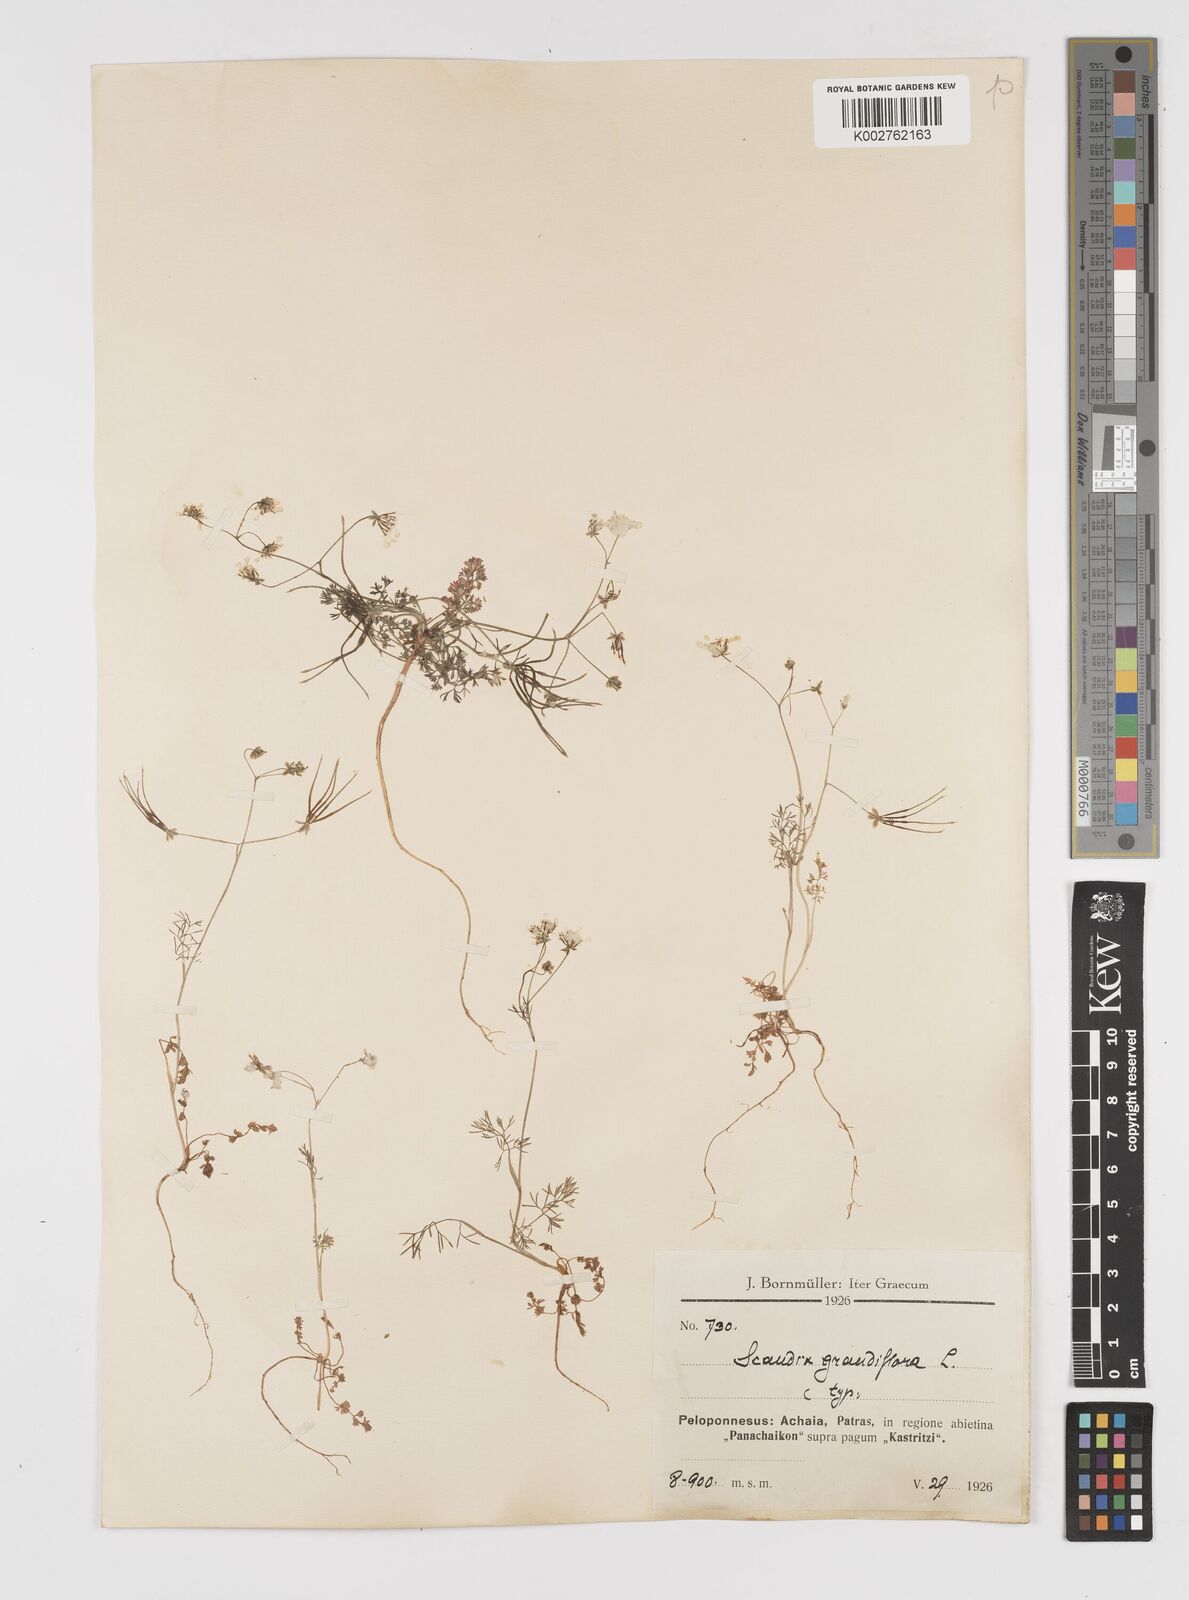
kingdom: Plantae
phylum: Tracheophyta
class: Magnoliopsida
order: Apiales
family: Apiaceae
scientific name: Apiaceae
